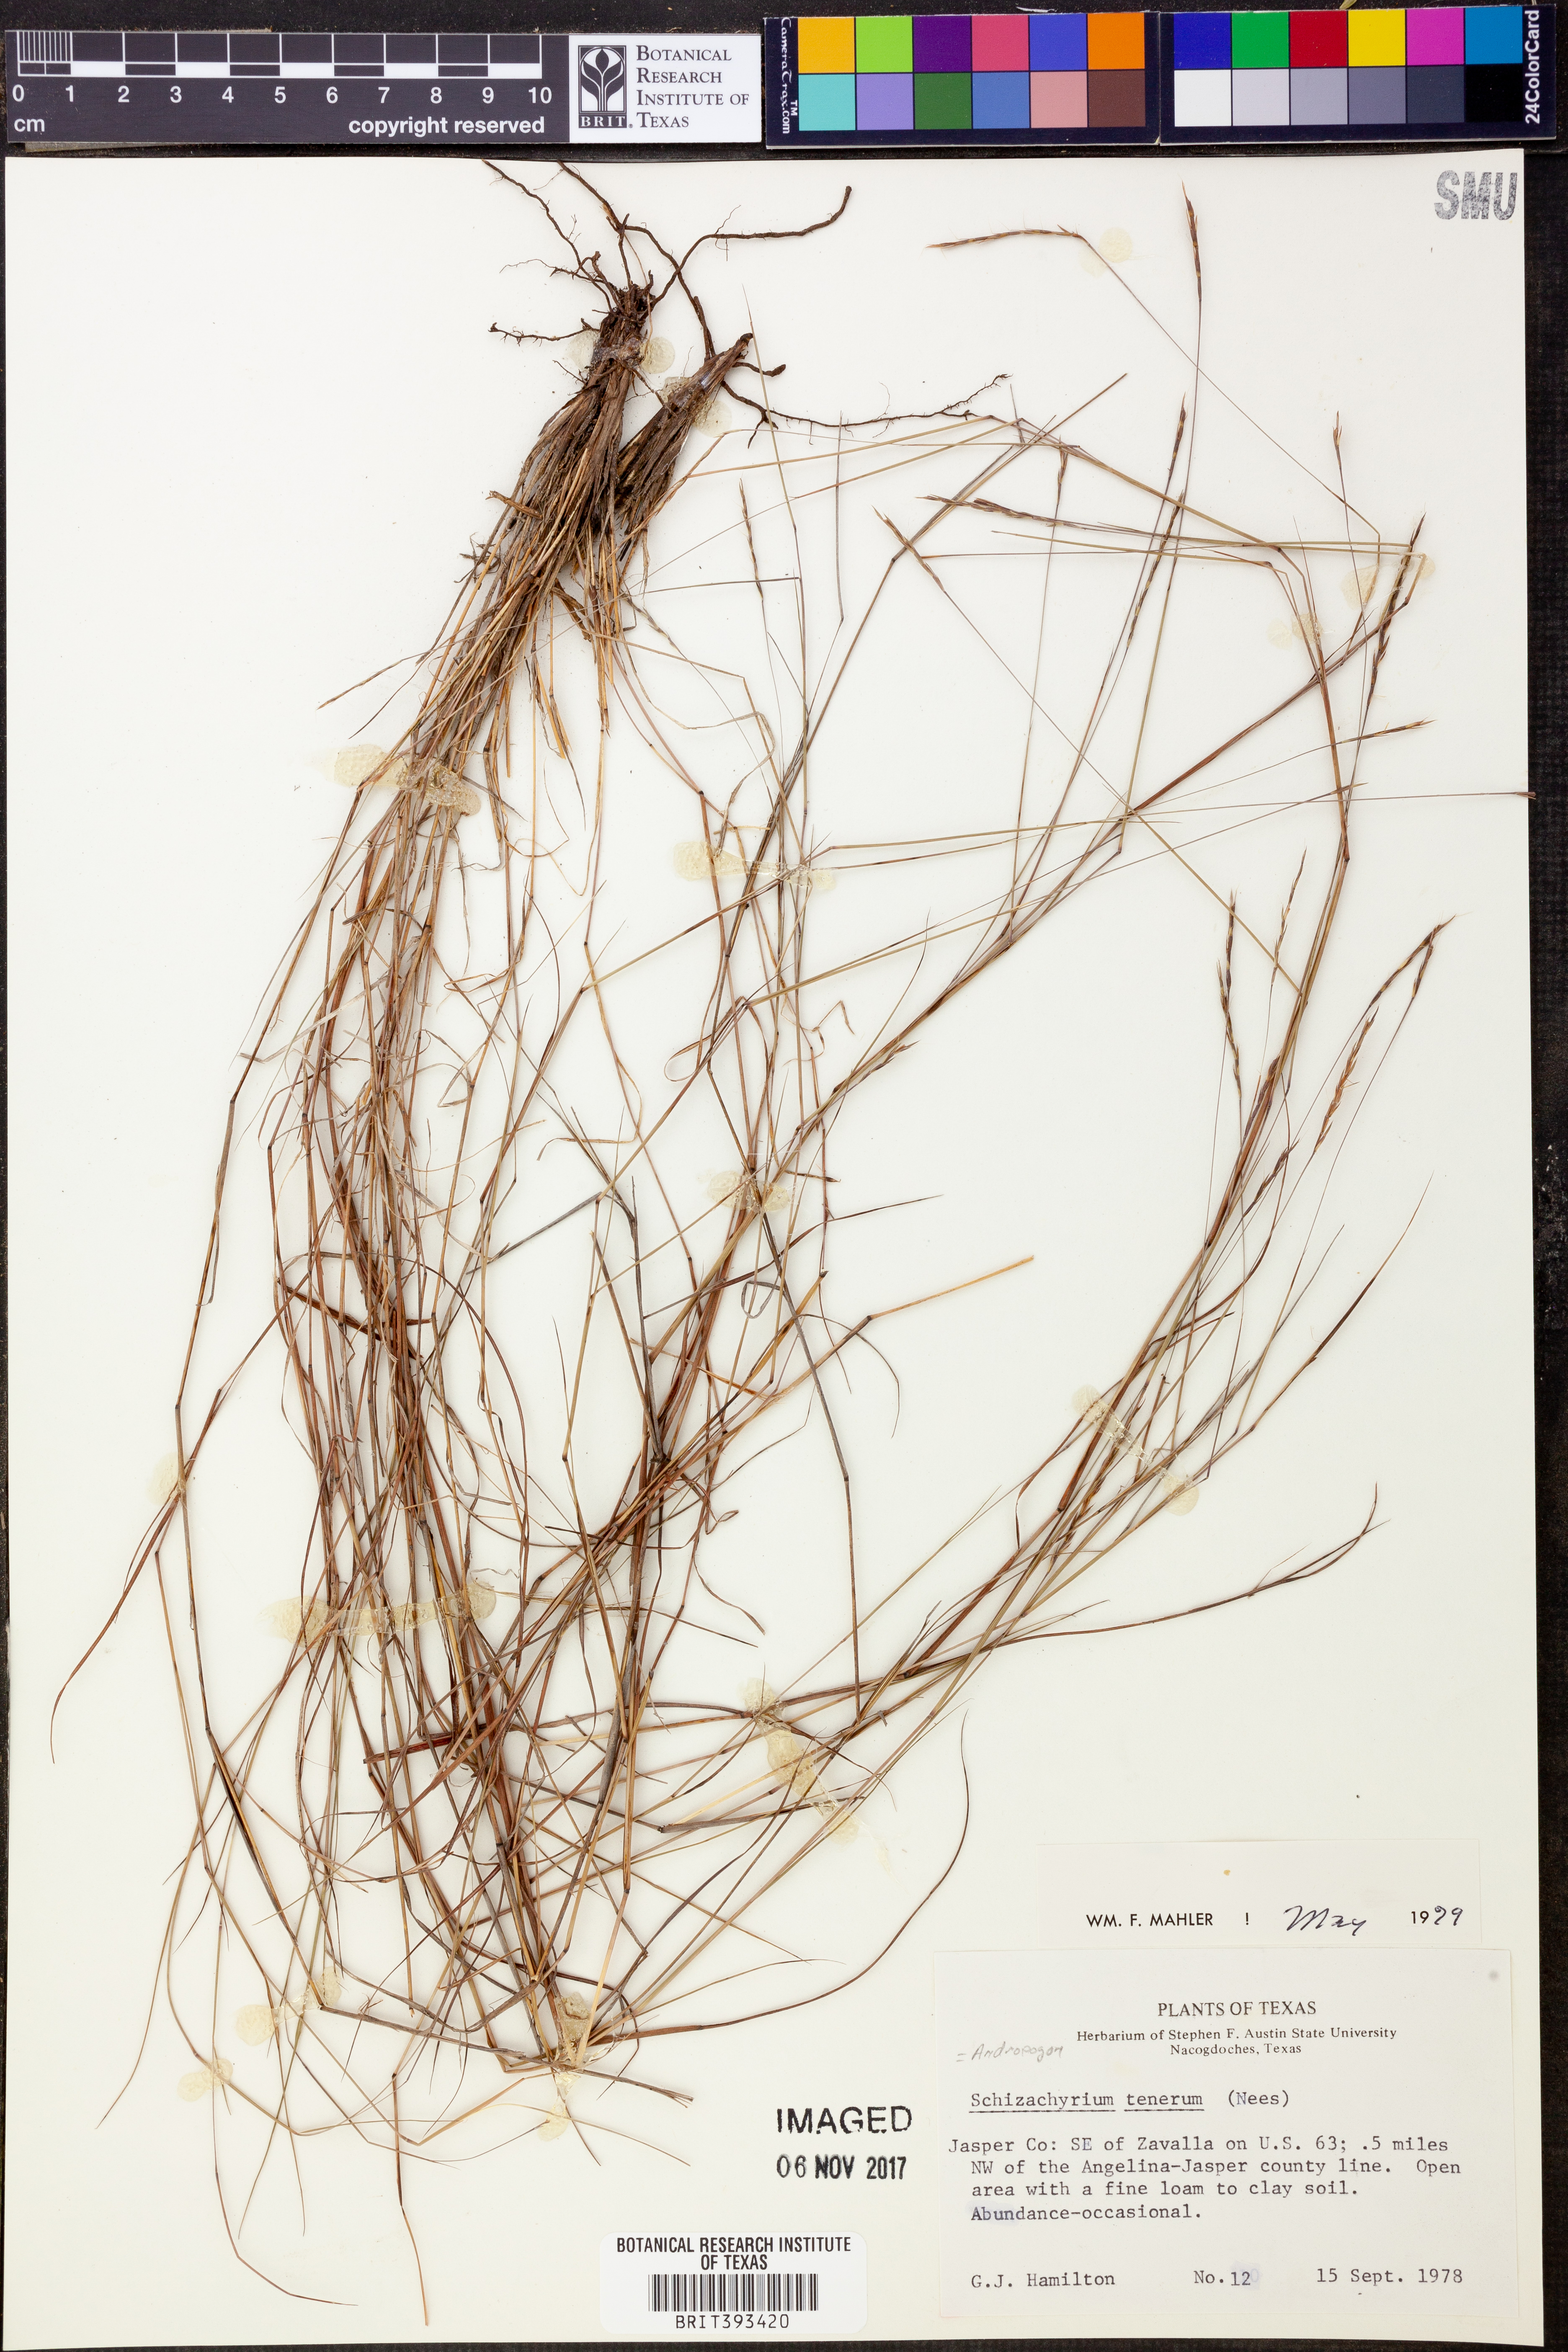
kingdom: Plantae
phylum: Tracheophyta
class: Liliopsida
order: Poales
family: Poaceae
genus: Andropogon
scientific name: Andropogon tener
